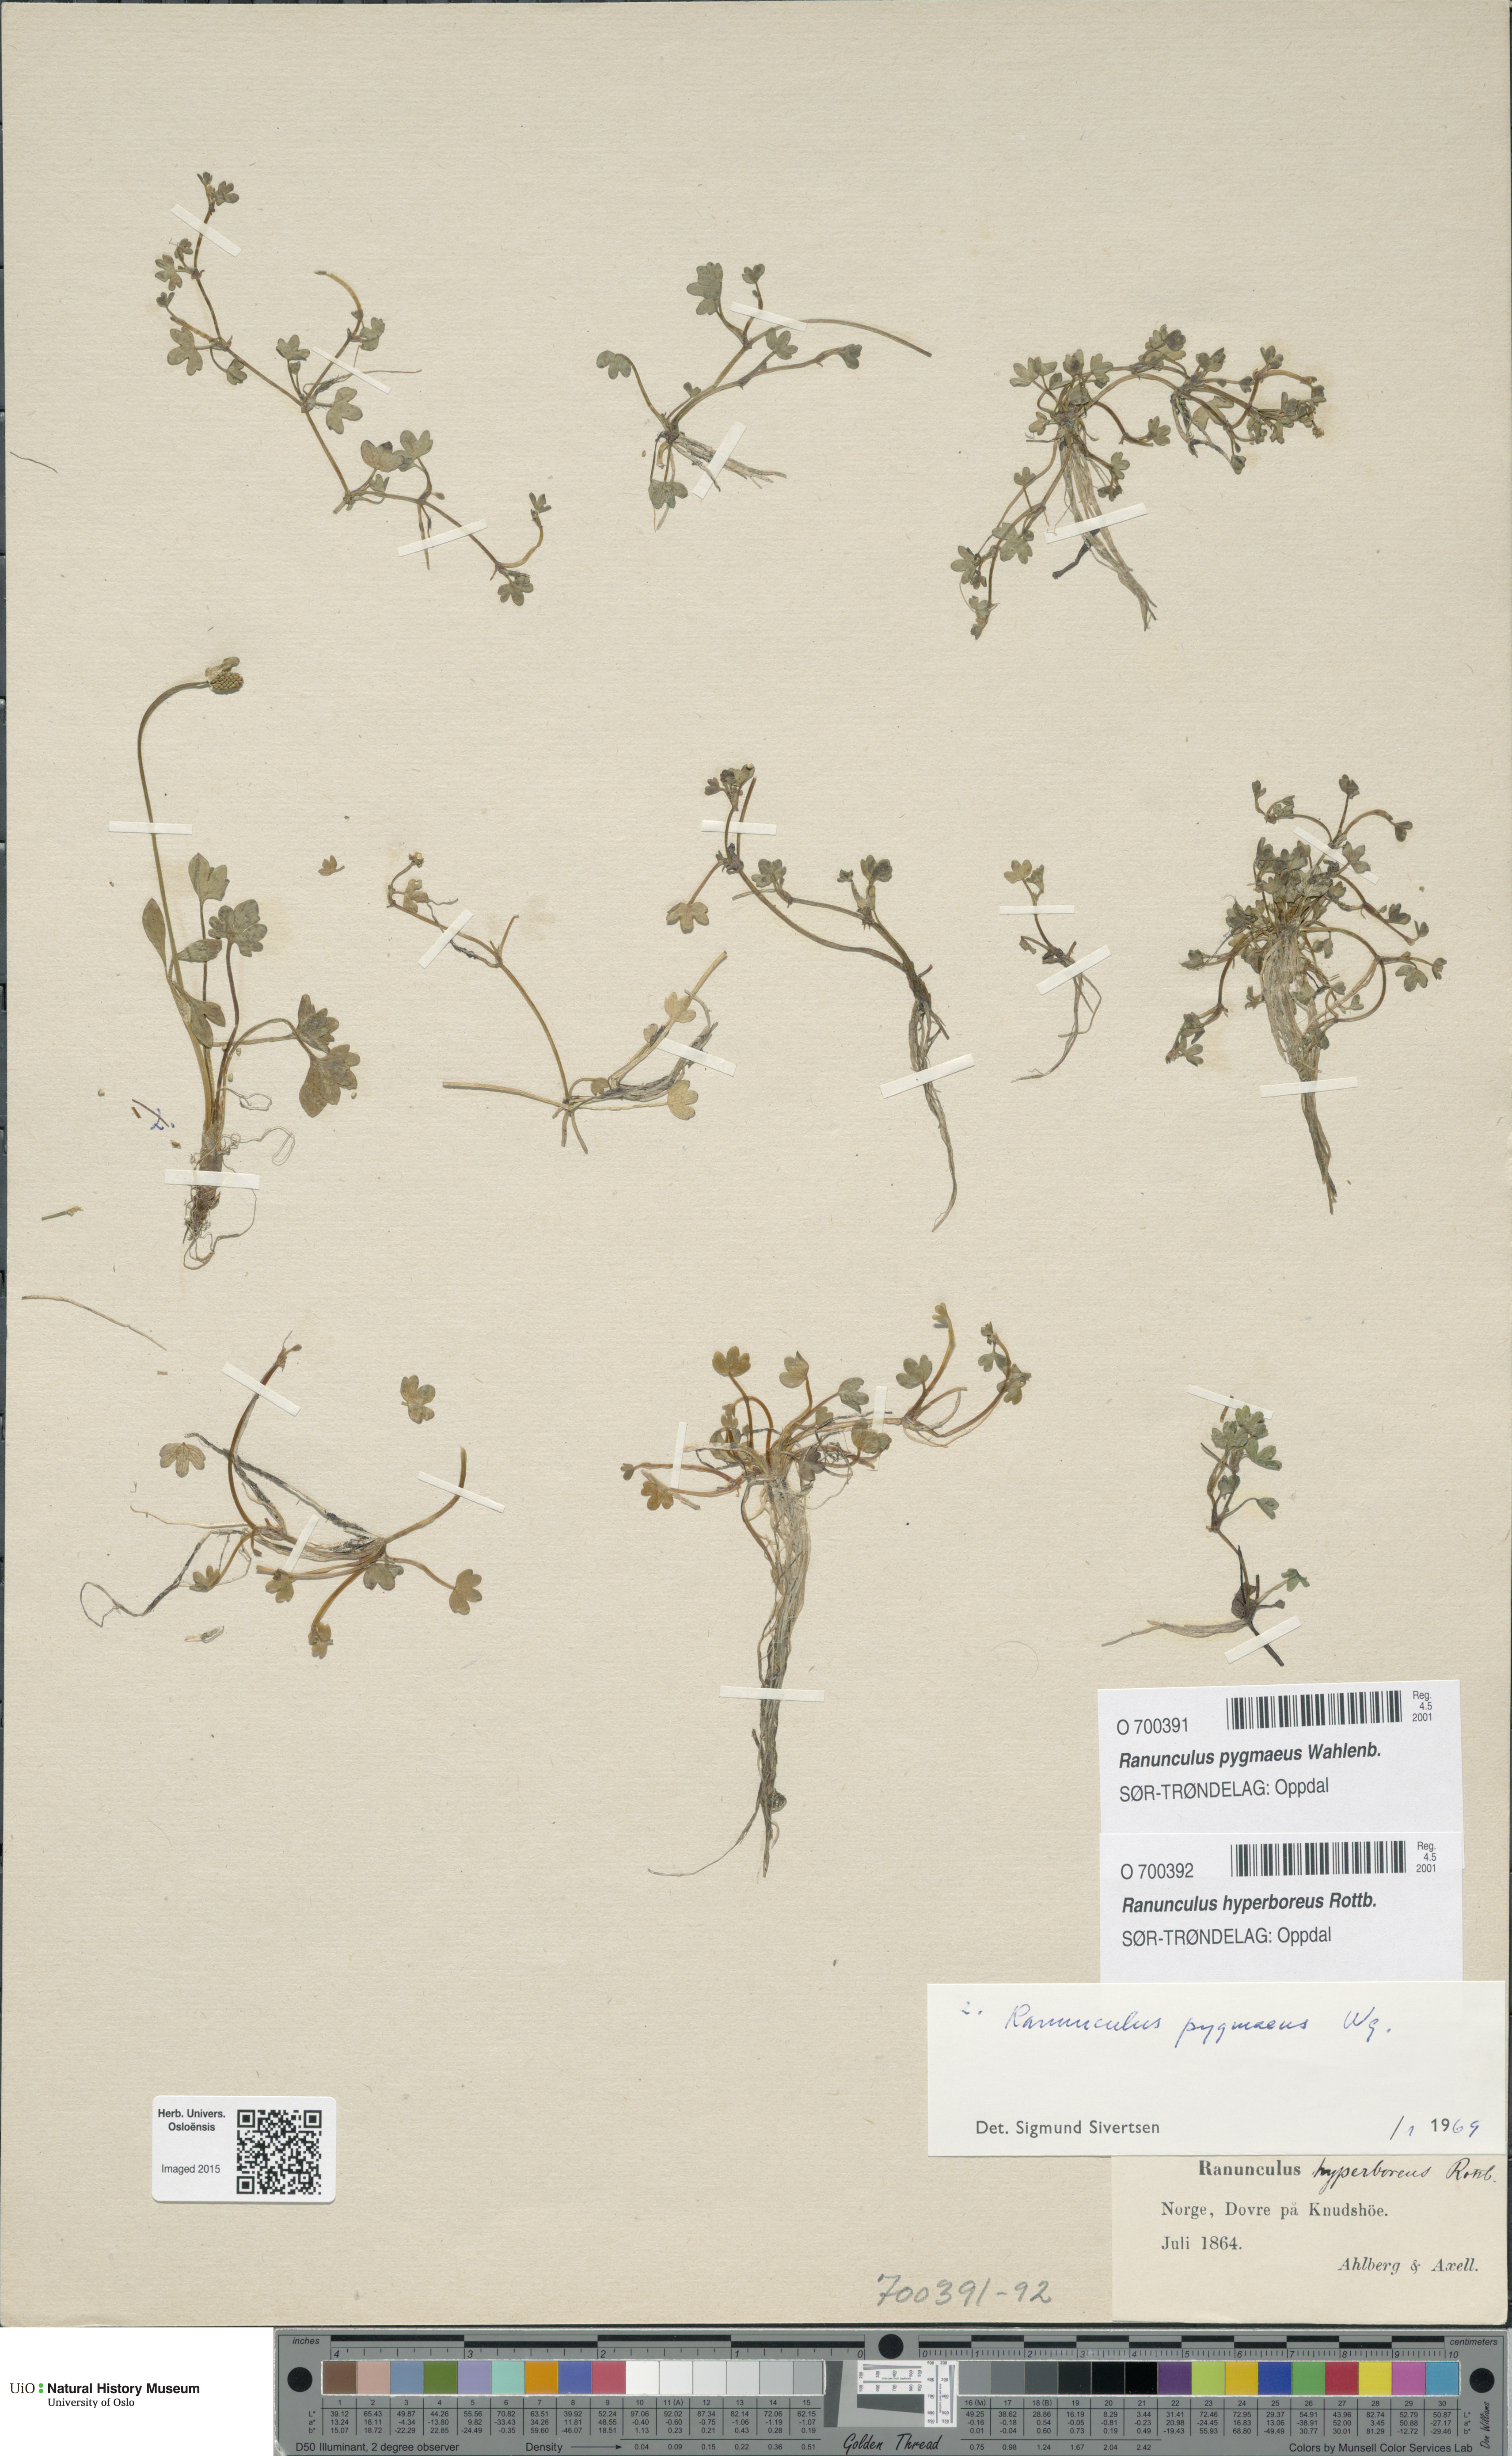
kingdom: Plantae
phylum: Tracheophyta
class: Magnoliopsida
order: Ranunculales
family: Ranunculaceae
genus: Ranunculus
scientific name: Ranunculus hyperboreus
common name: Arctic buttercup
